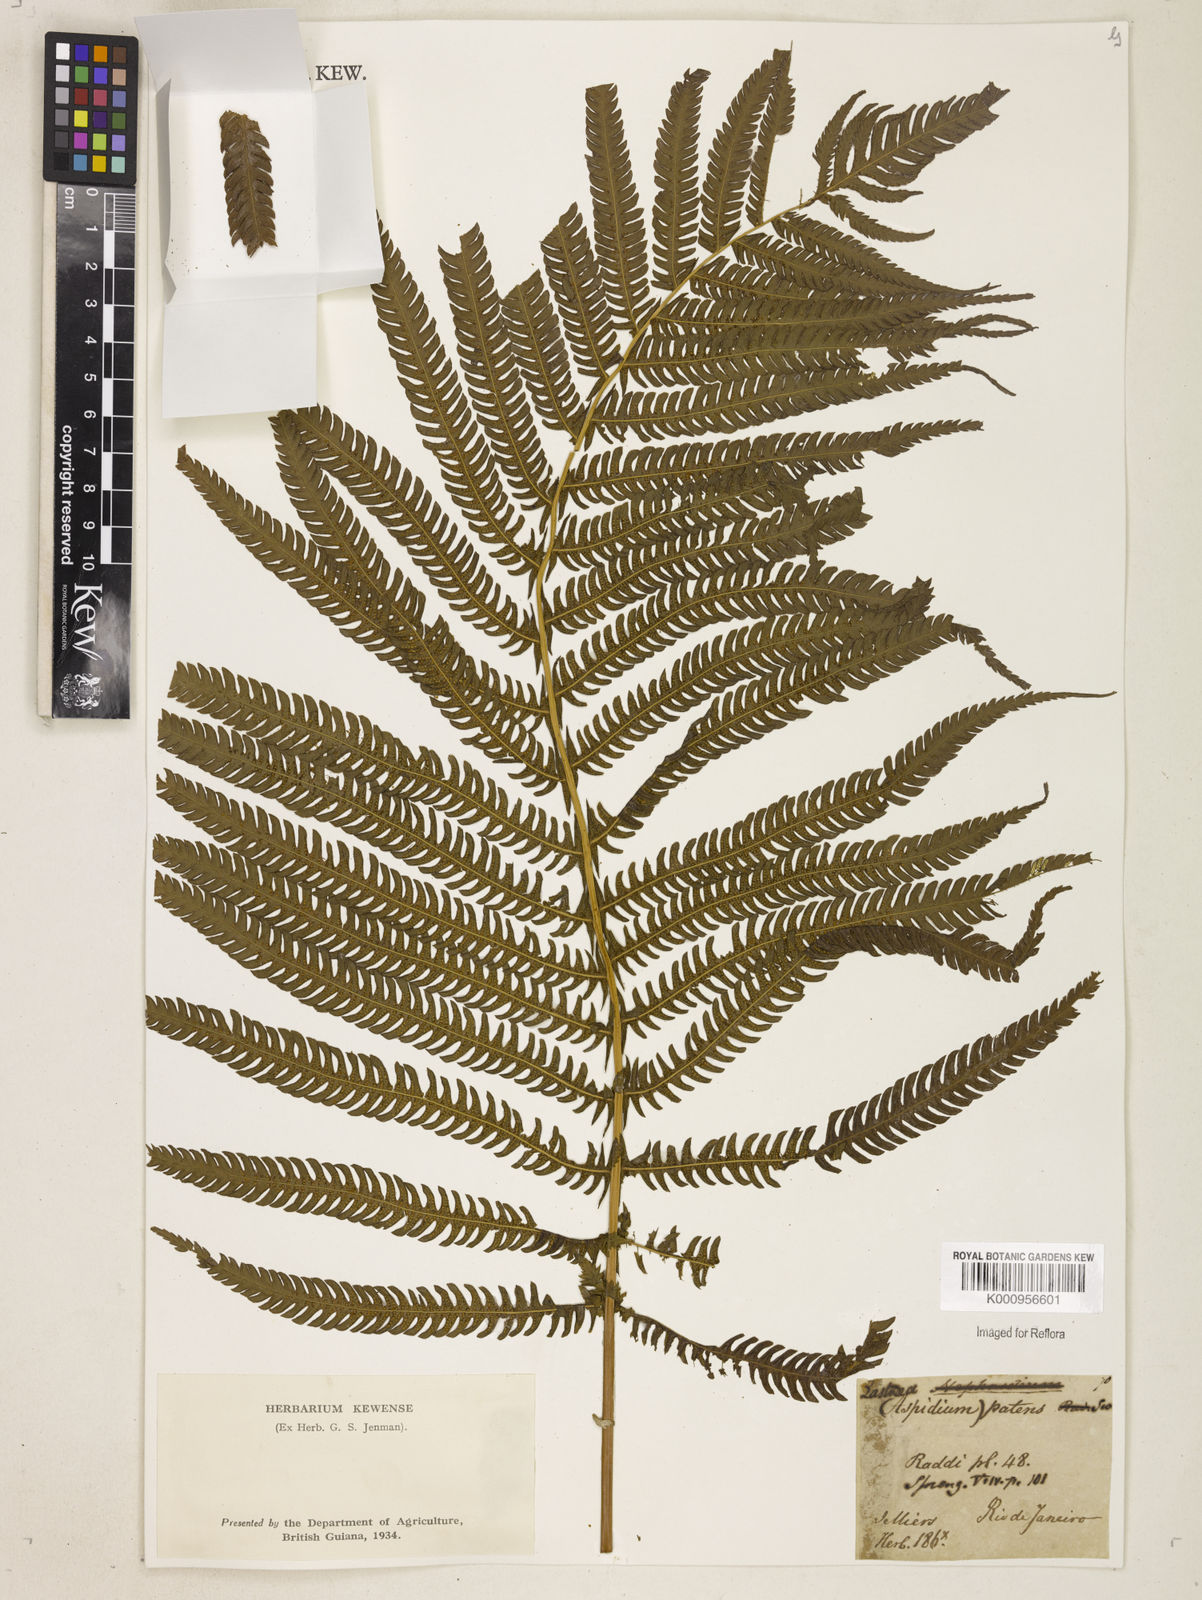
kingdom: Plantae
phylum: Tracheophyta
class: Polypodiopsida
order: Polypodiales
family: Thelypteridaceae
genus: Pelazoneuron
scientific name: Pelazoneuron patens
